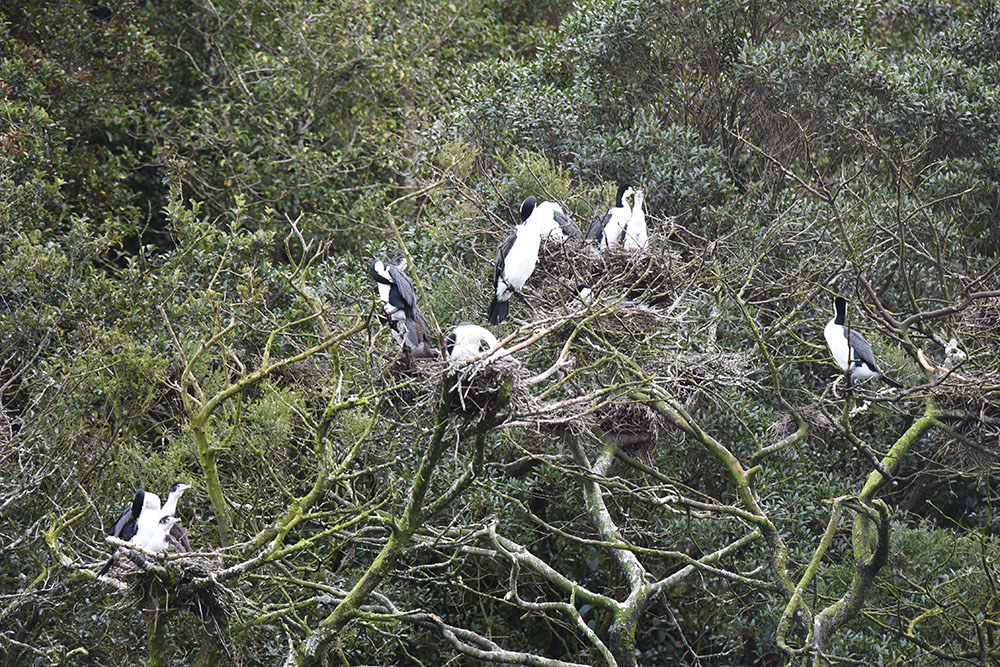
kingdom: Animalia
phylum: Chordata
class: Aves
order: Suliformes
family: Phalacrocoracidae
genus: Phalacrocorax
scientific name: Phalacrocorax varius
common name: Pied cormorant
